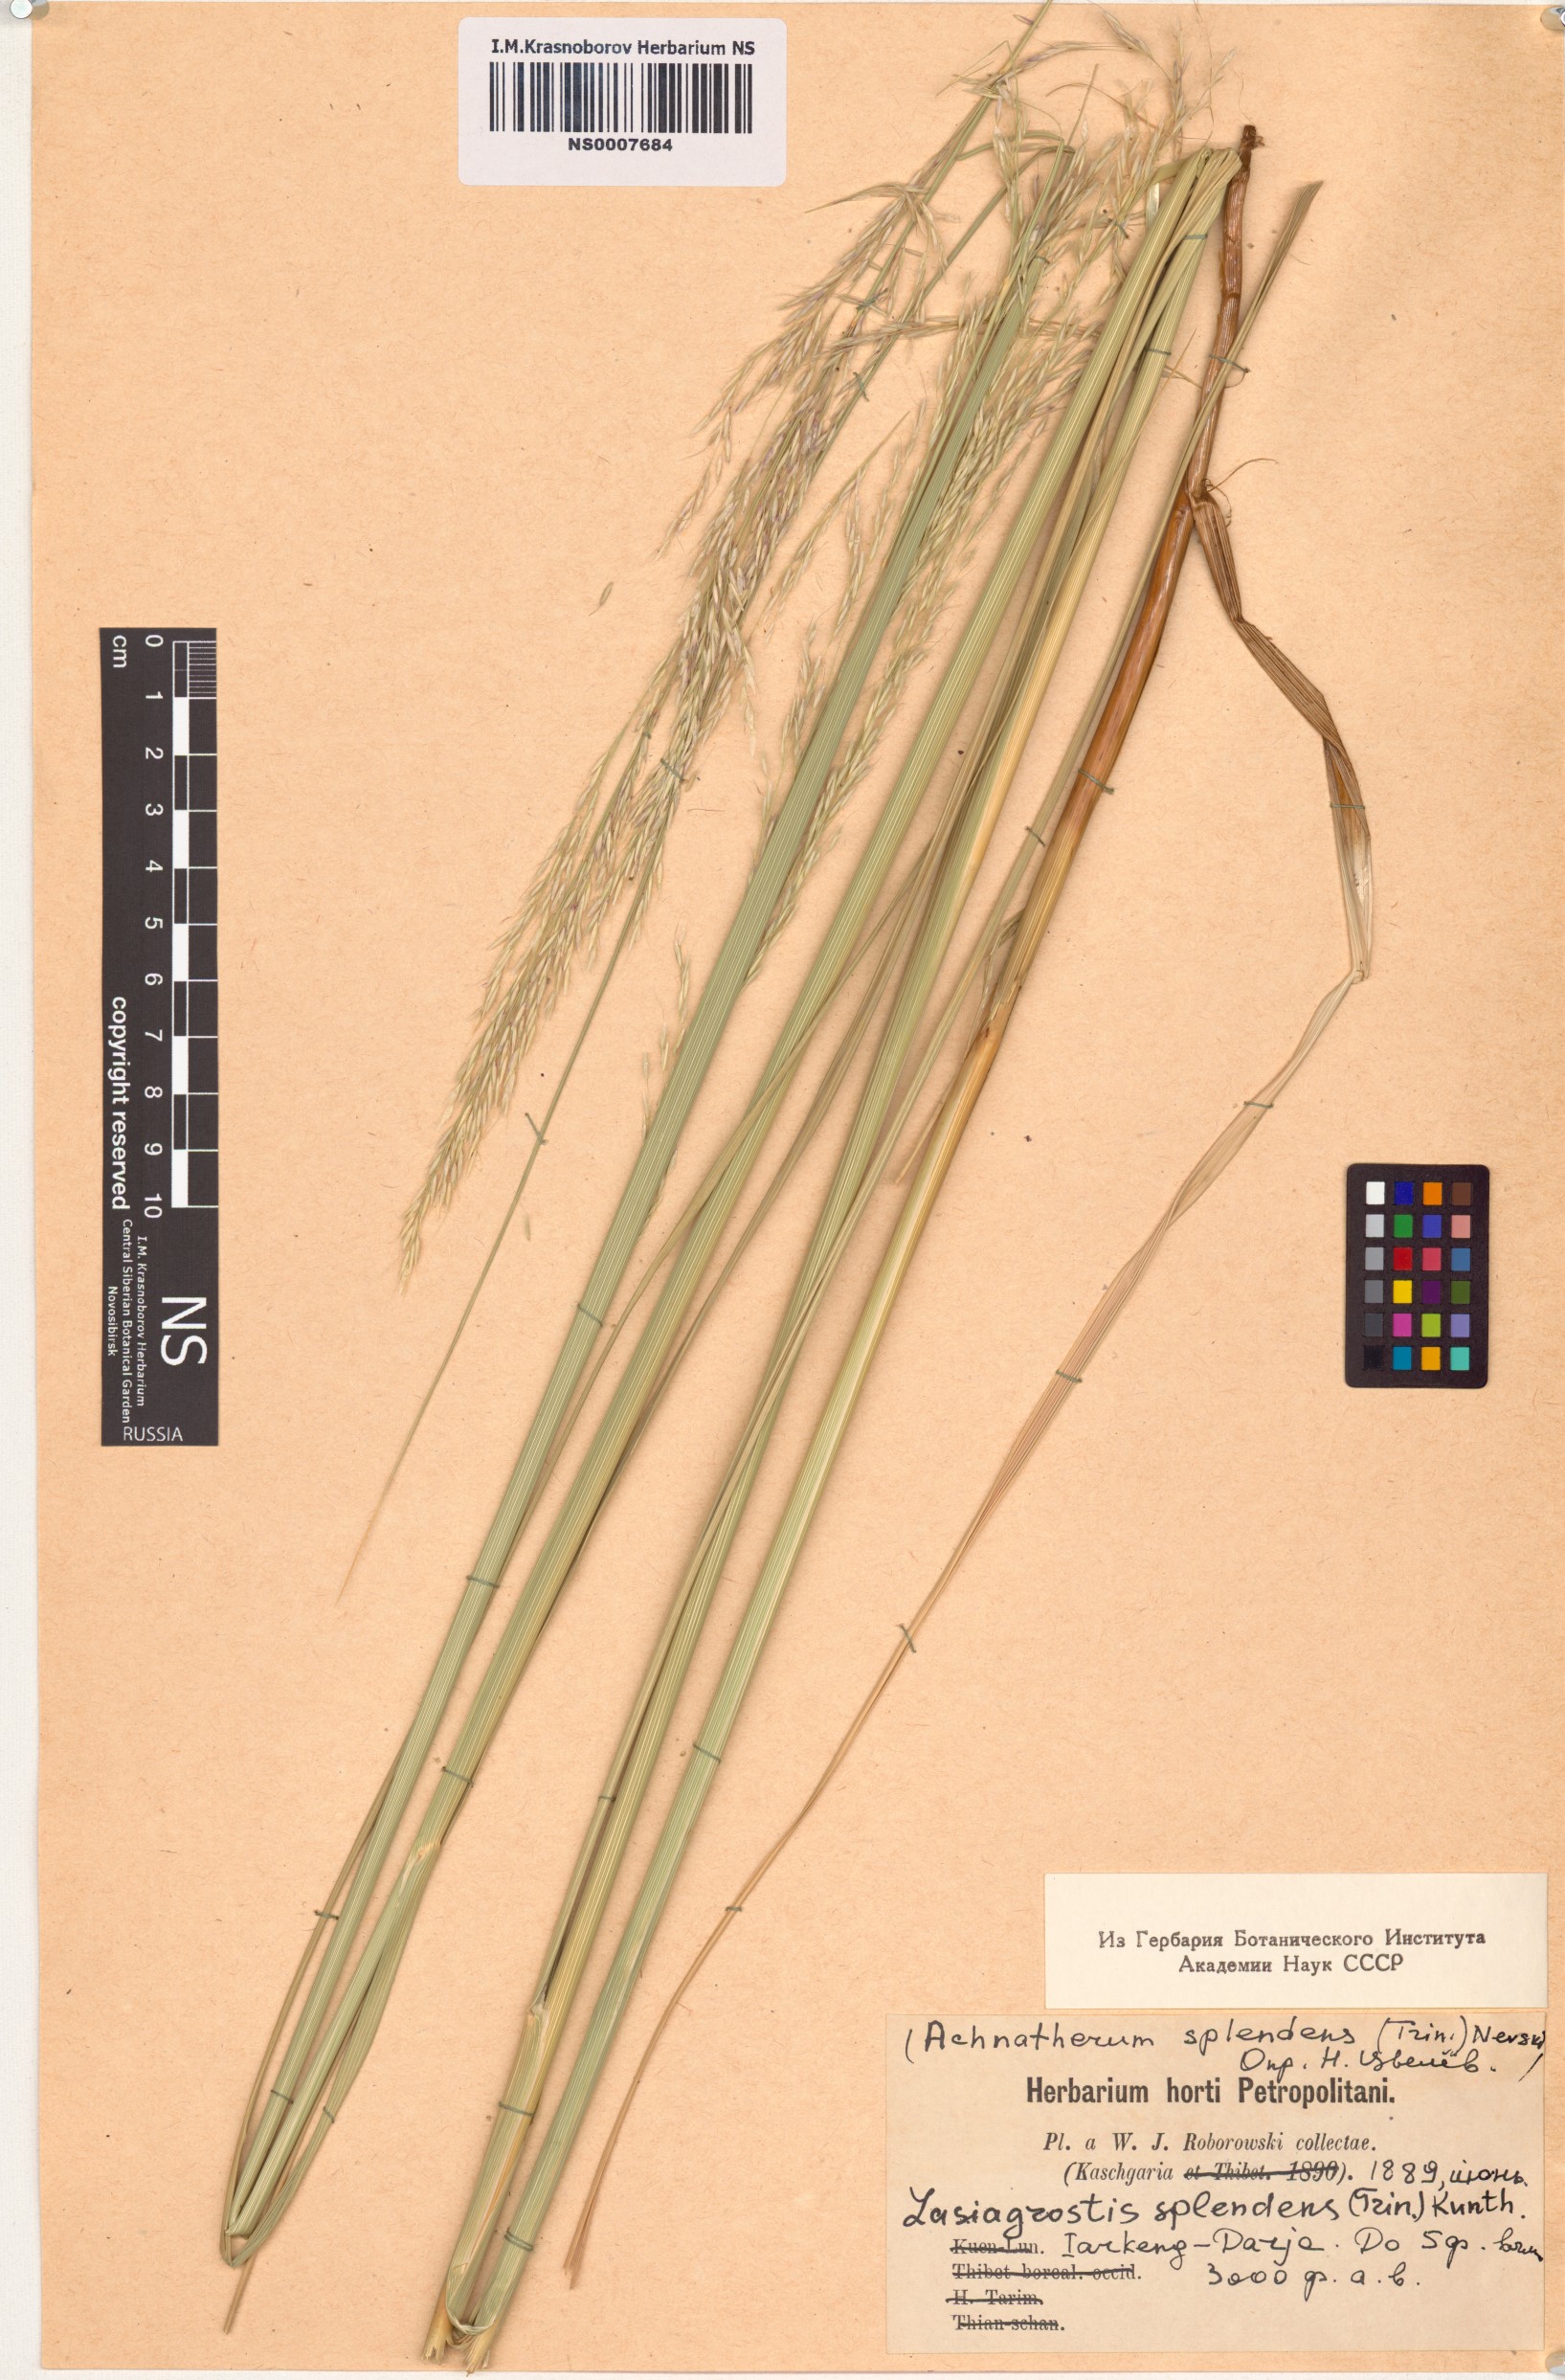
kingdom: Plantae
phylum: Tracheophyta
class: Liliopsida
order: Poales
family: Poaceae
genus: Neotrinia
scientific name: Neotrinia splendens
